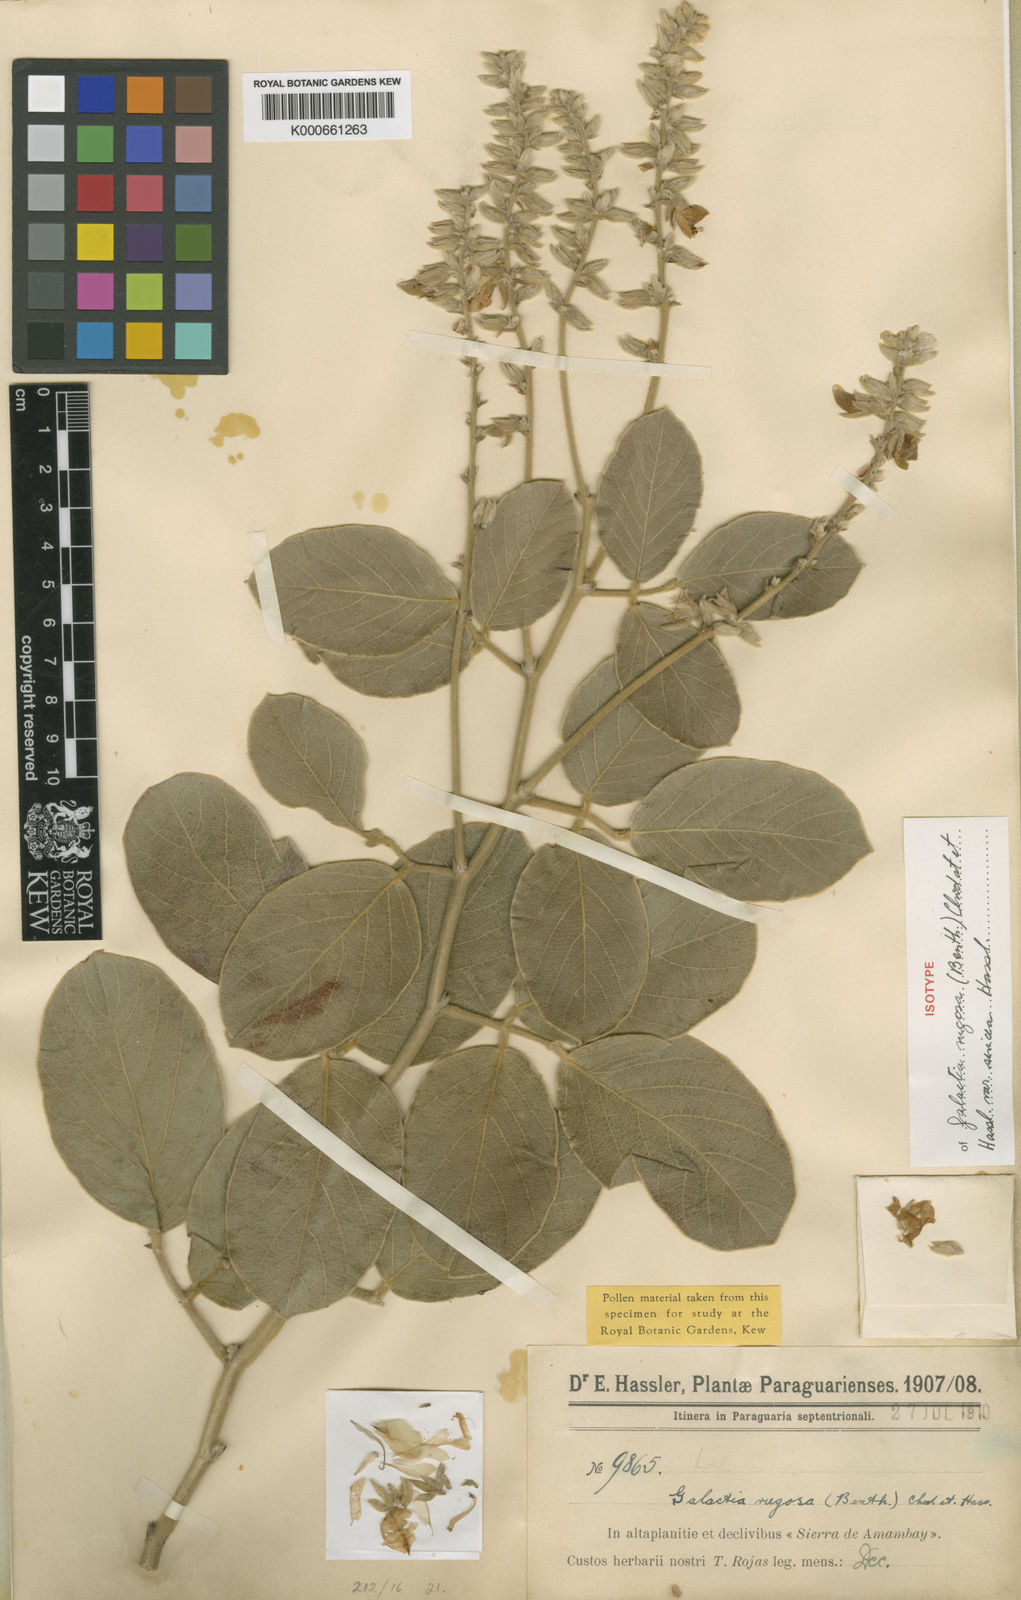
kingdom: Plantae
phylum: Tracheophyta
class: Magnoliopsida
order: Fabales
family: Fabaceae
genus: Cerradicola
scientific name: Cerradicola elliptica
